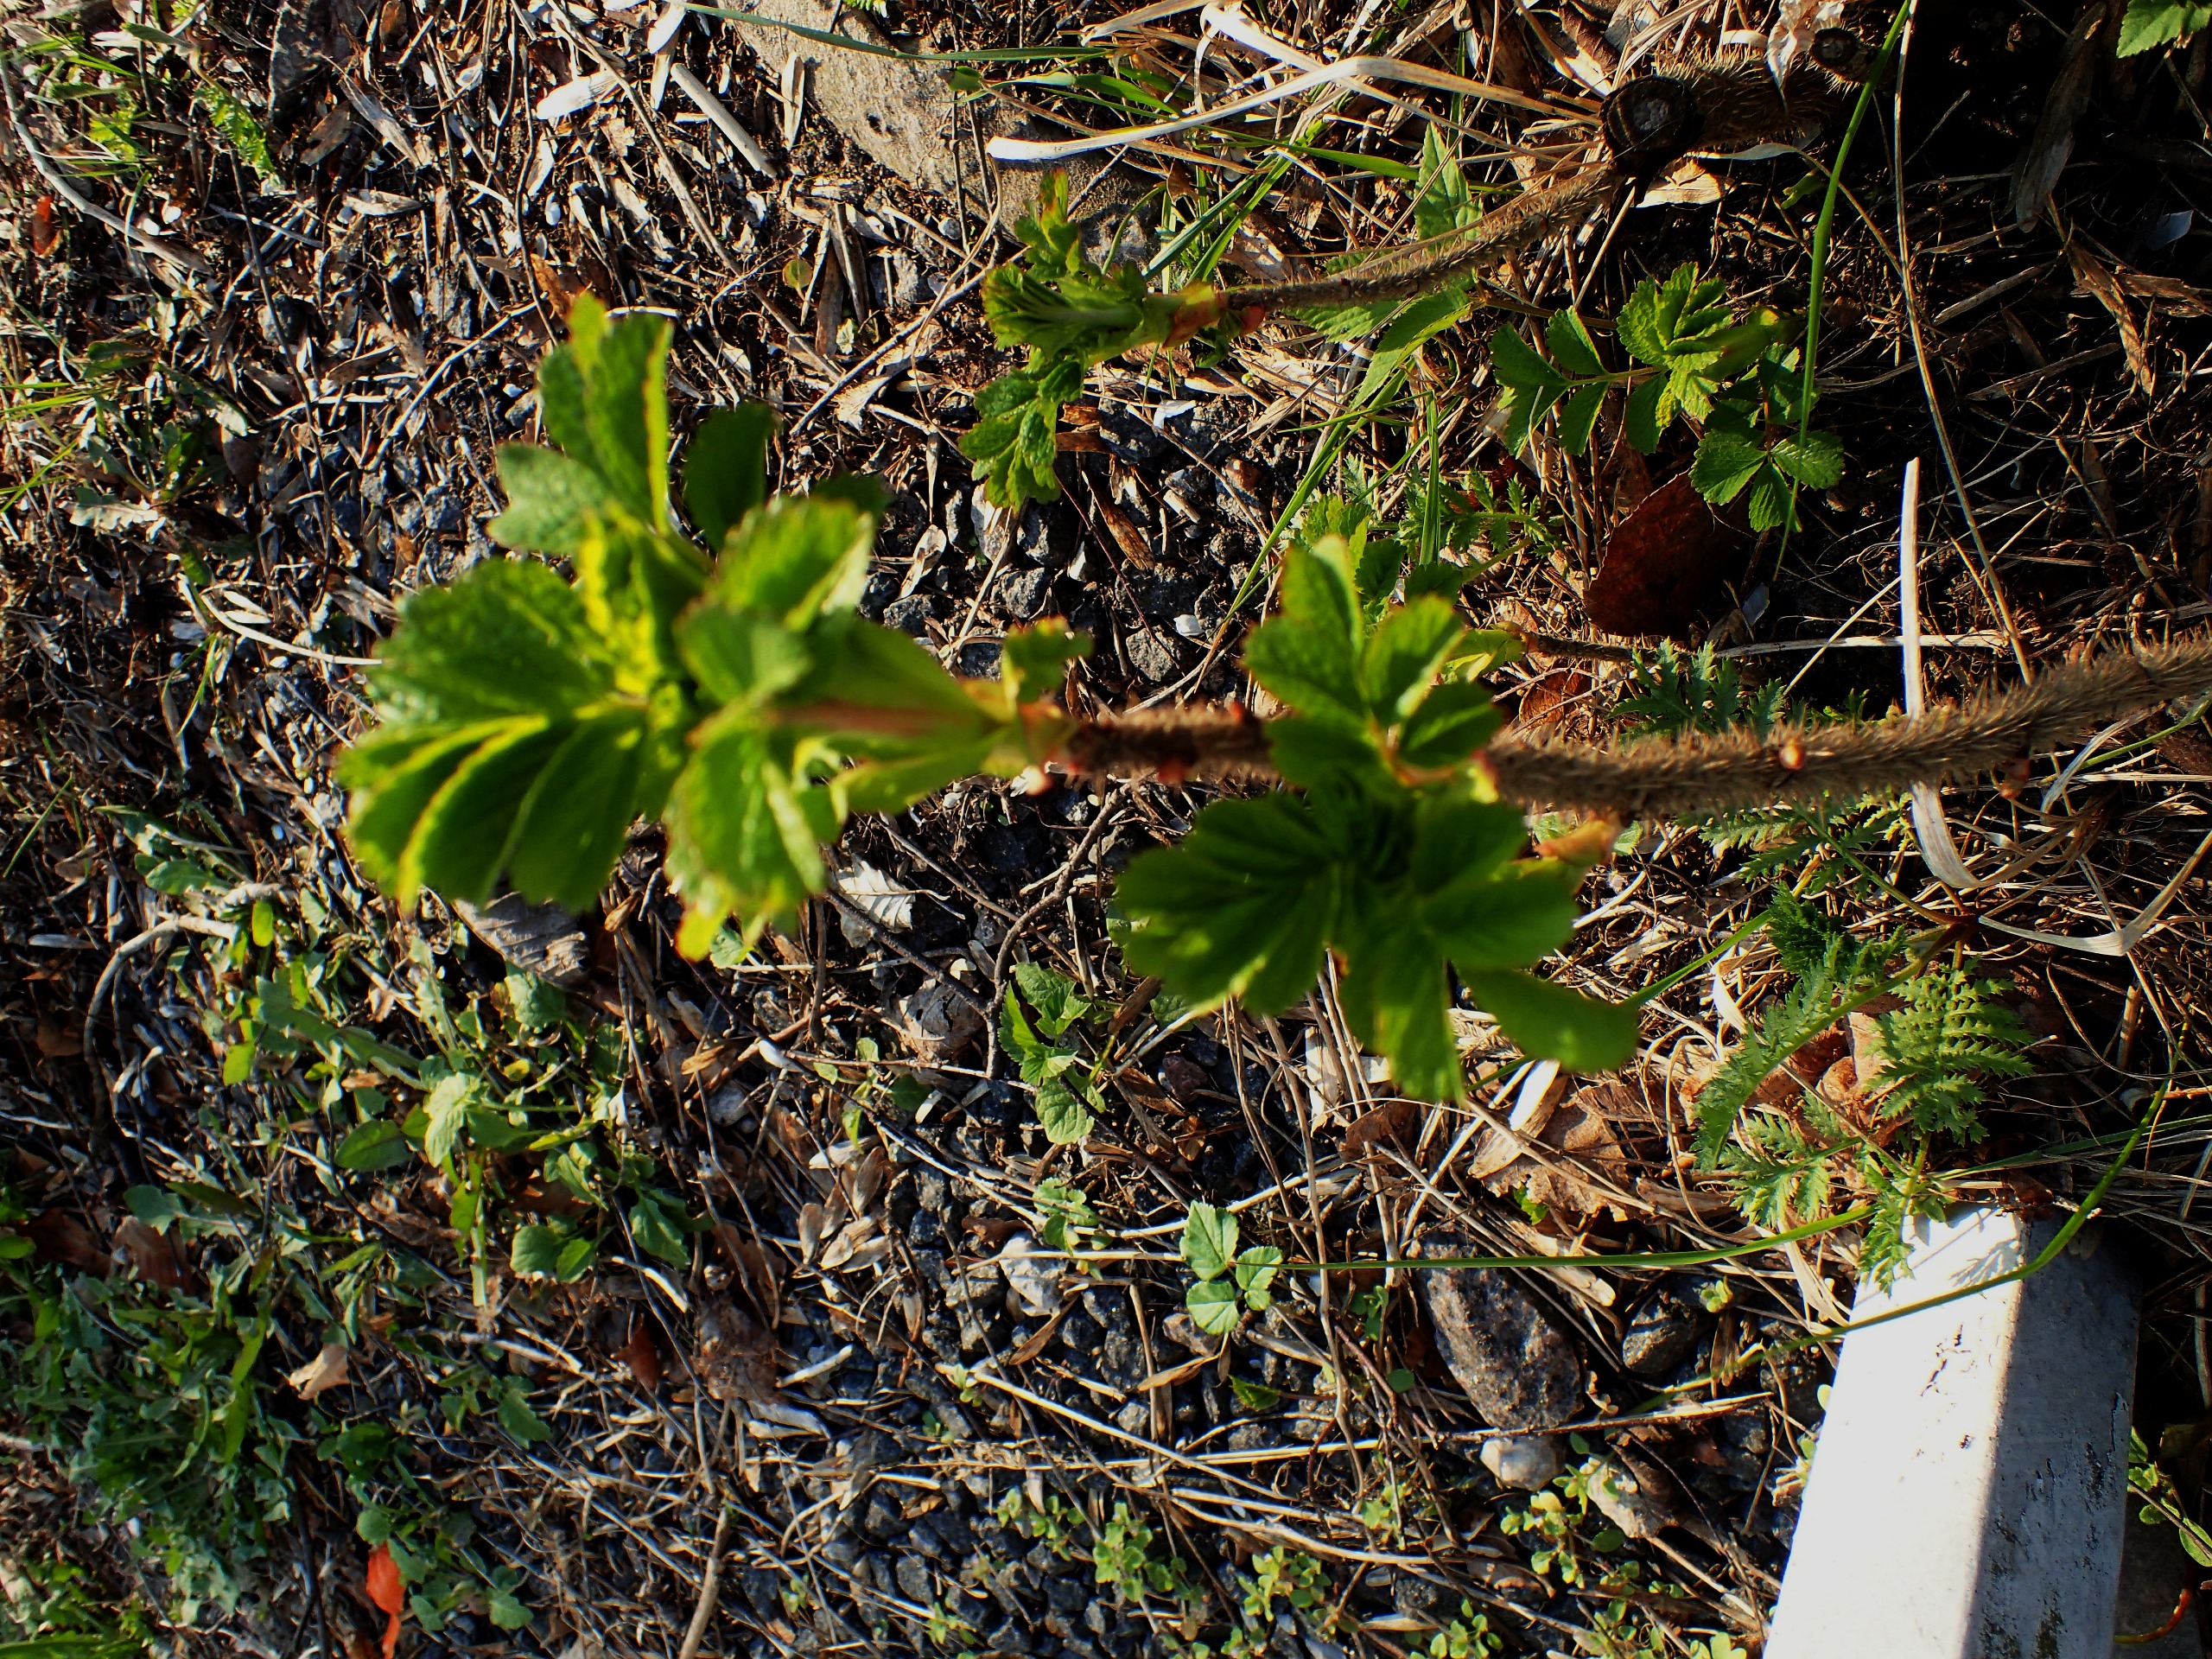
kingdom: Plantae
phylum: Tracheophyta
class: Magnoliopsida
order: Rosales
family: Rosaceae
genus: Rosa
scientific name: Rosa rugosa
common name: Rynket rose
